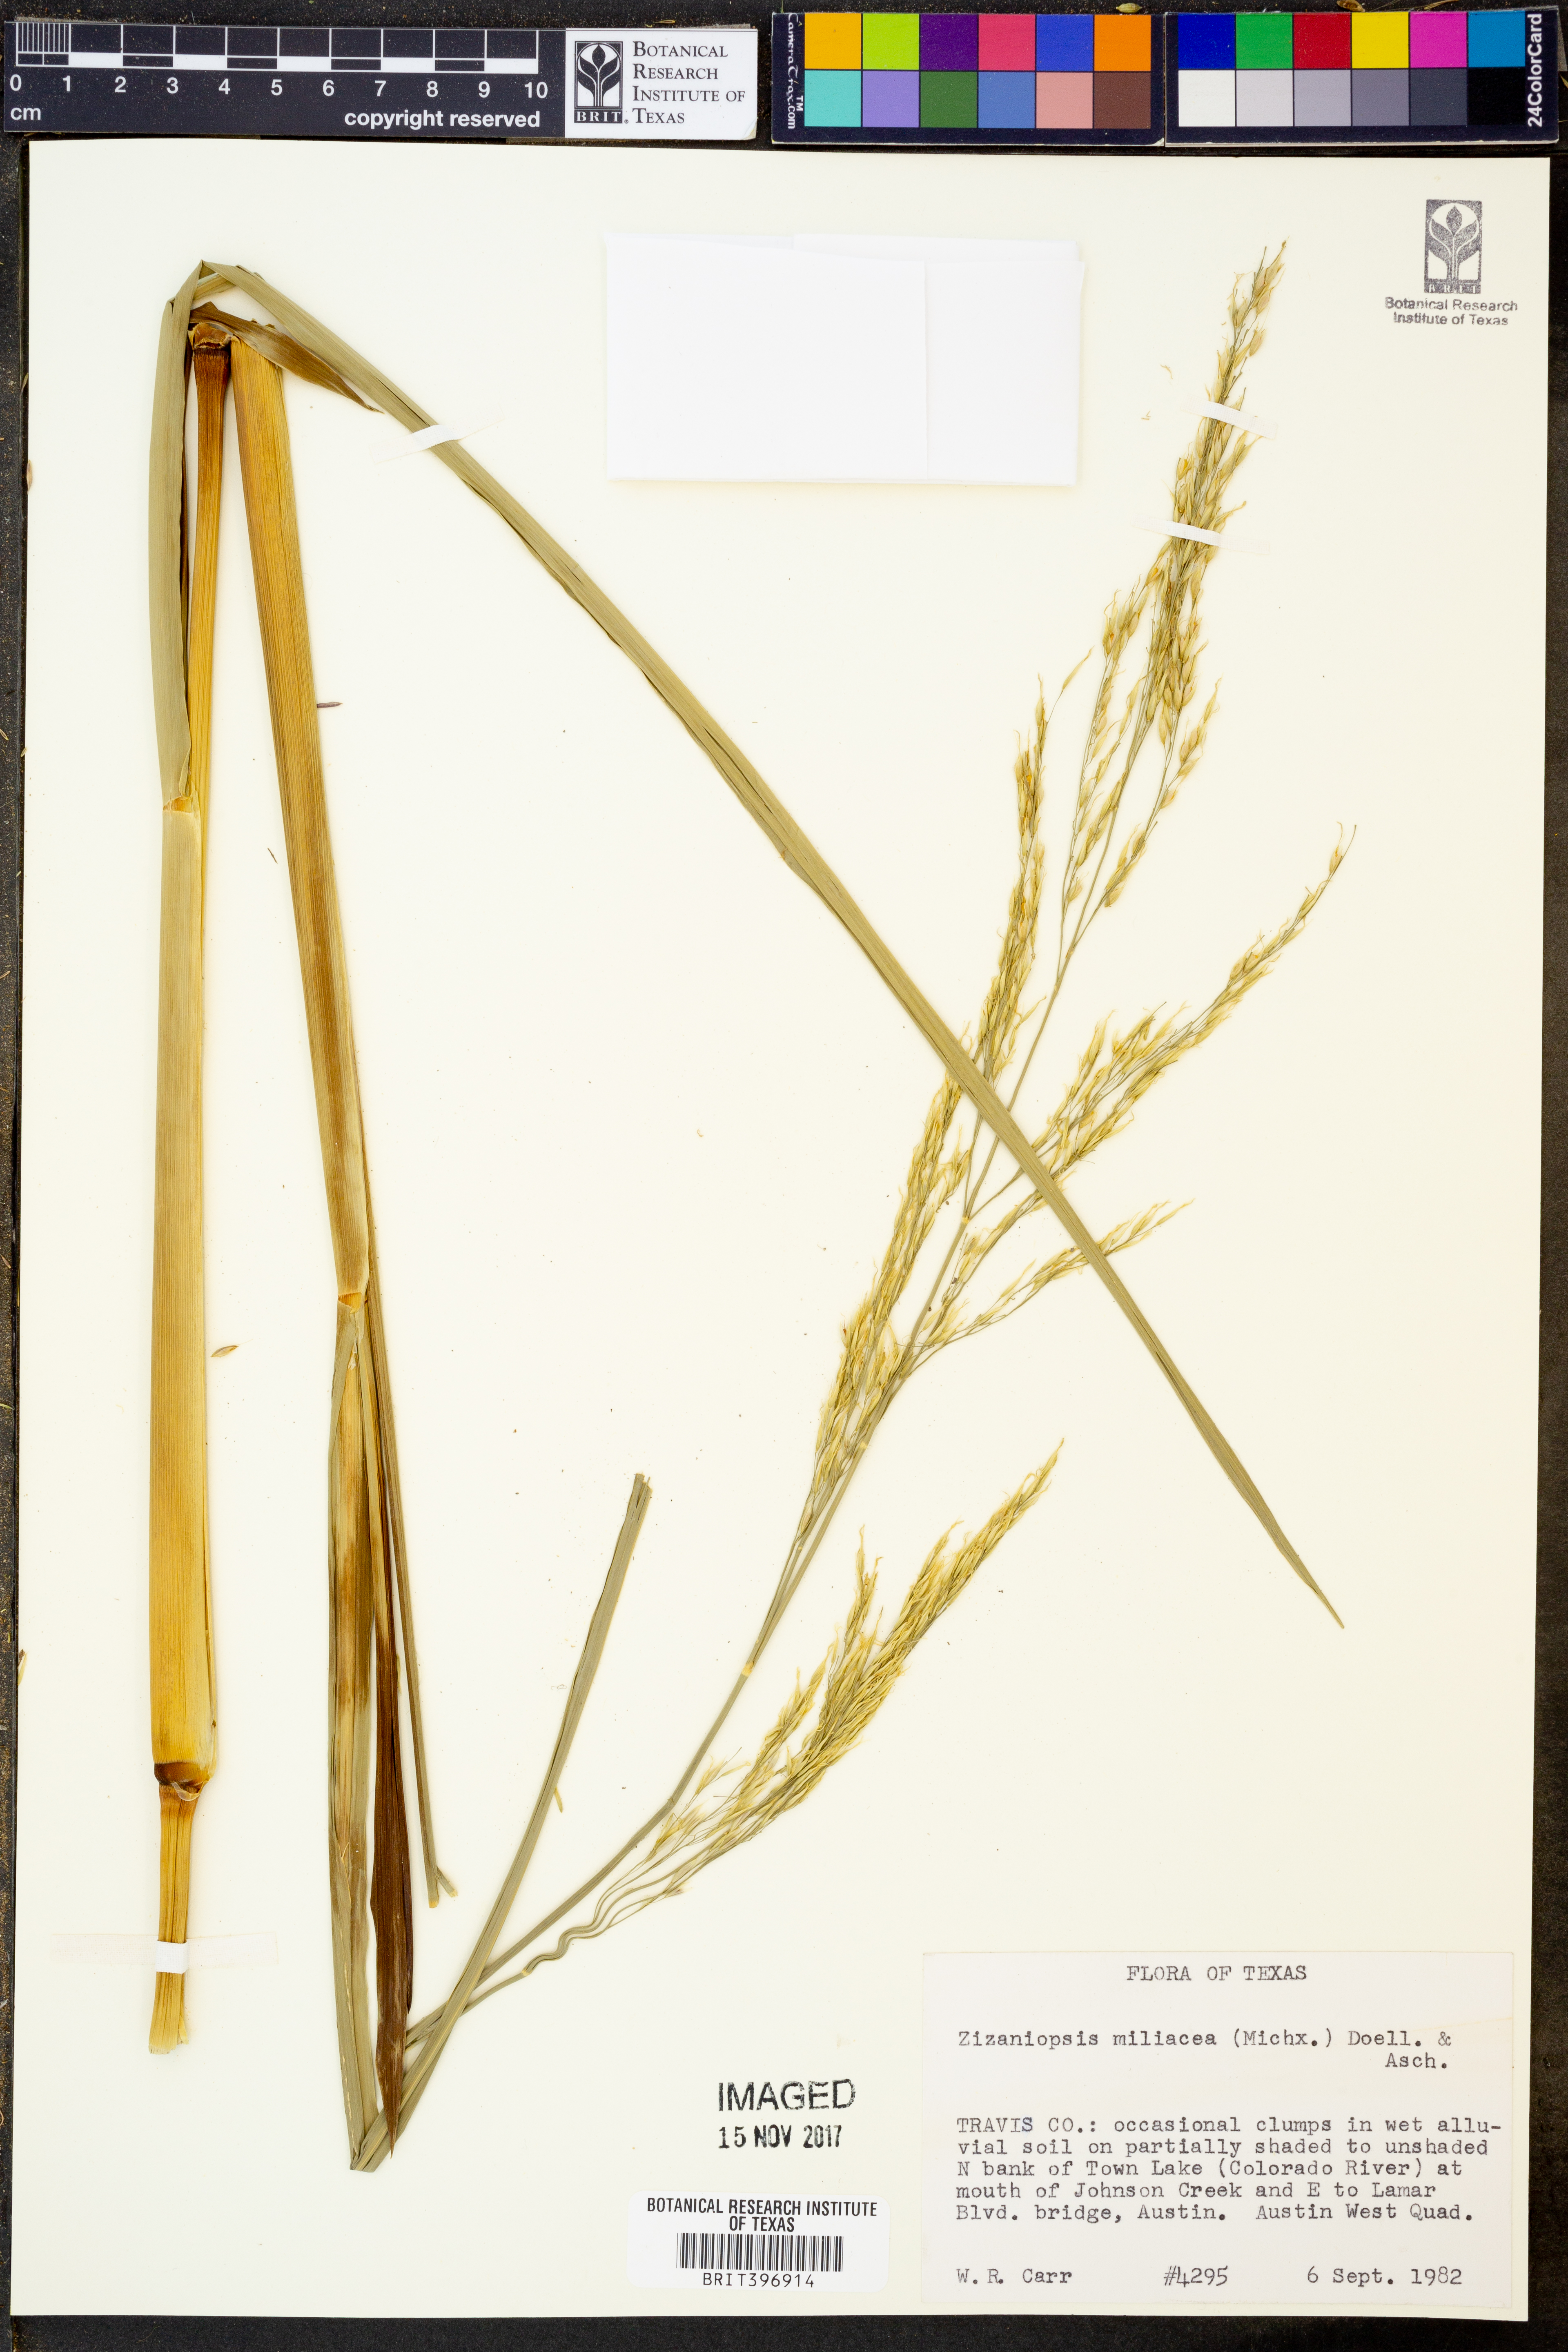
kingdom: Plantae
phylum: Tracheophyta
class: Liliopsida
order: Poales
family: Poaceae
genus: Zizaniopsis
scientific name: Zizaniopsis miliacea
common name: Giant-cutgrass
